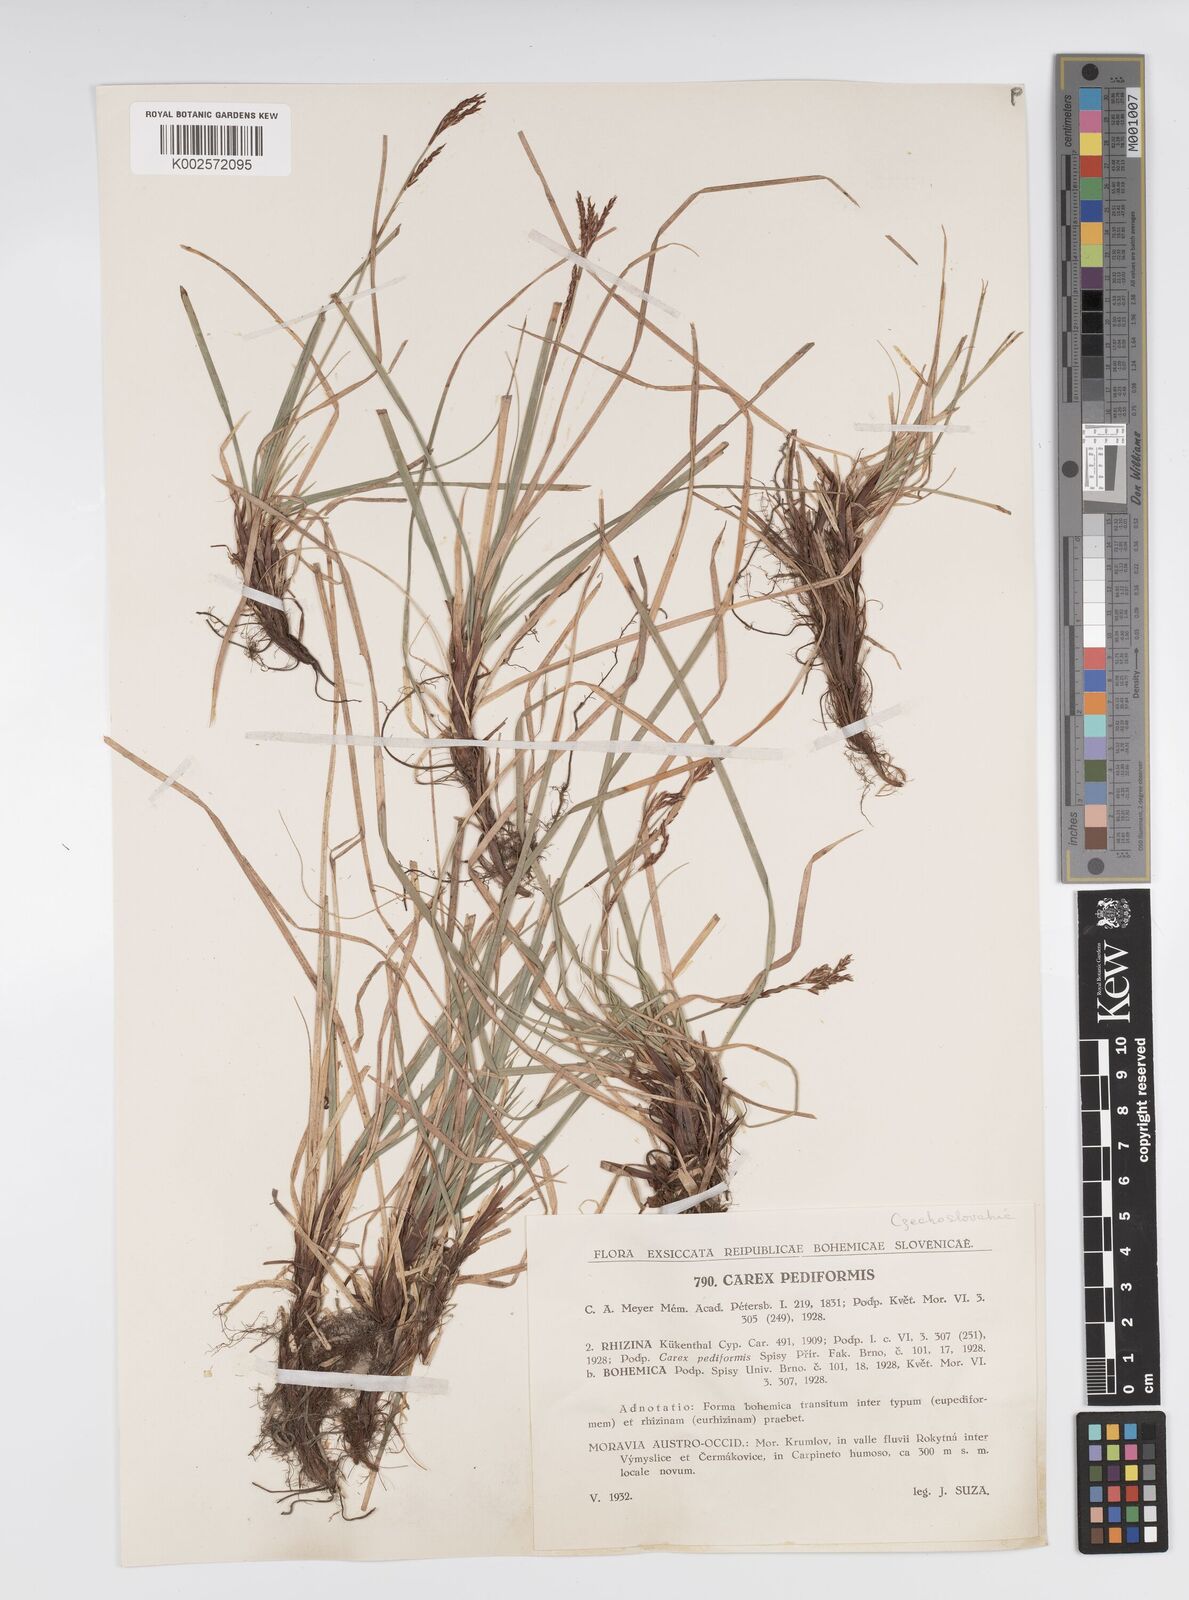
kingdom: Plantae
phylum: Tracheophyta
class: Liliopsida
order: Poales
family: Cyperaceae
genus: Carex
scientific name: Carex pediformis
